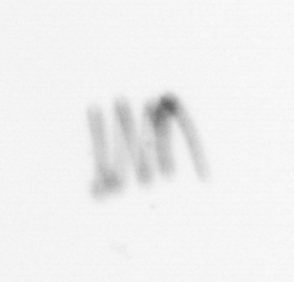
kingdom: Chromista
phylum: Ochrophyta
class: Bacillariophyceae
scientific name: Bacillariophyceae
